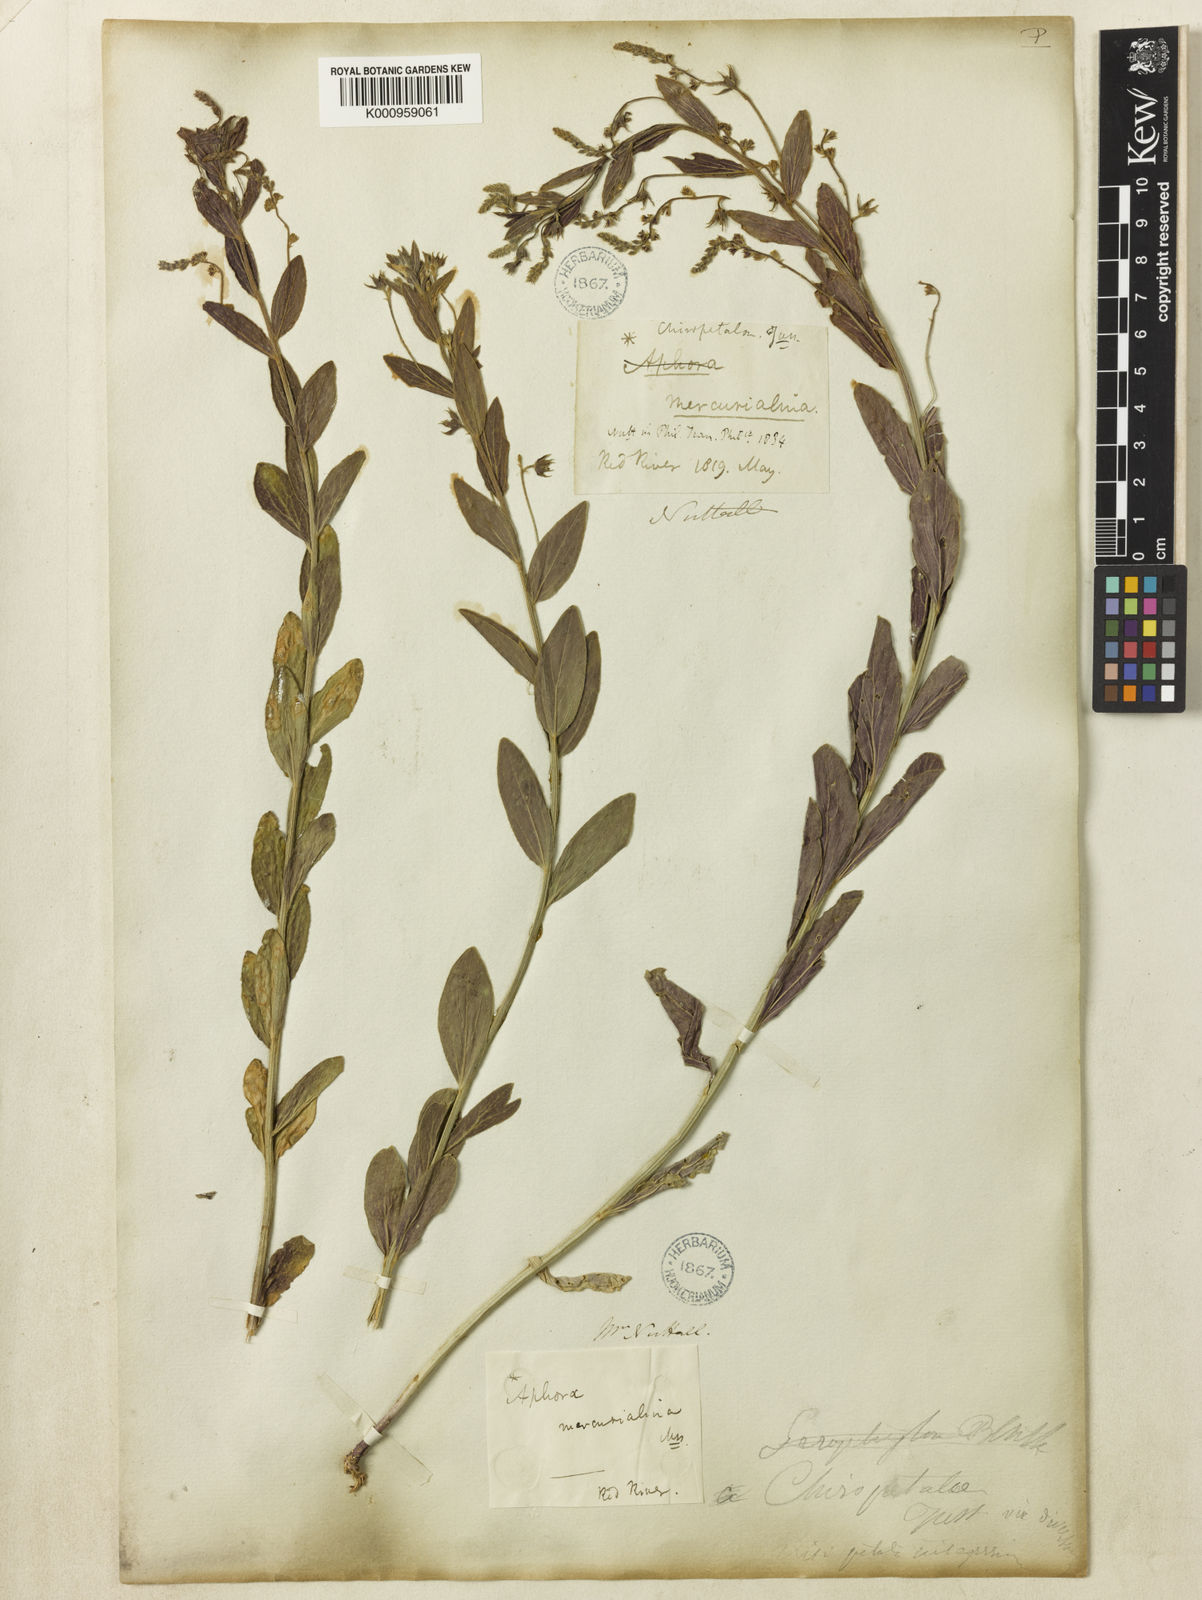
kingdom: Plantae
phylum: Tracheophyta
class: Magnoliopsida
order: Malpighiales
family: Euphorbiaceae
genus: Ditaxis
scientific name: Ditaxis mercurialina
